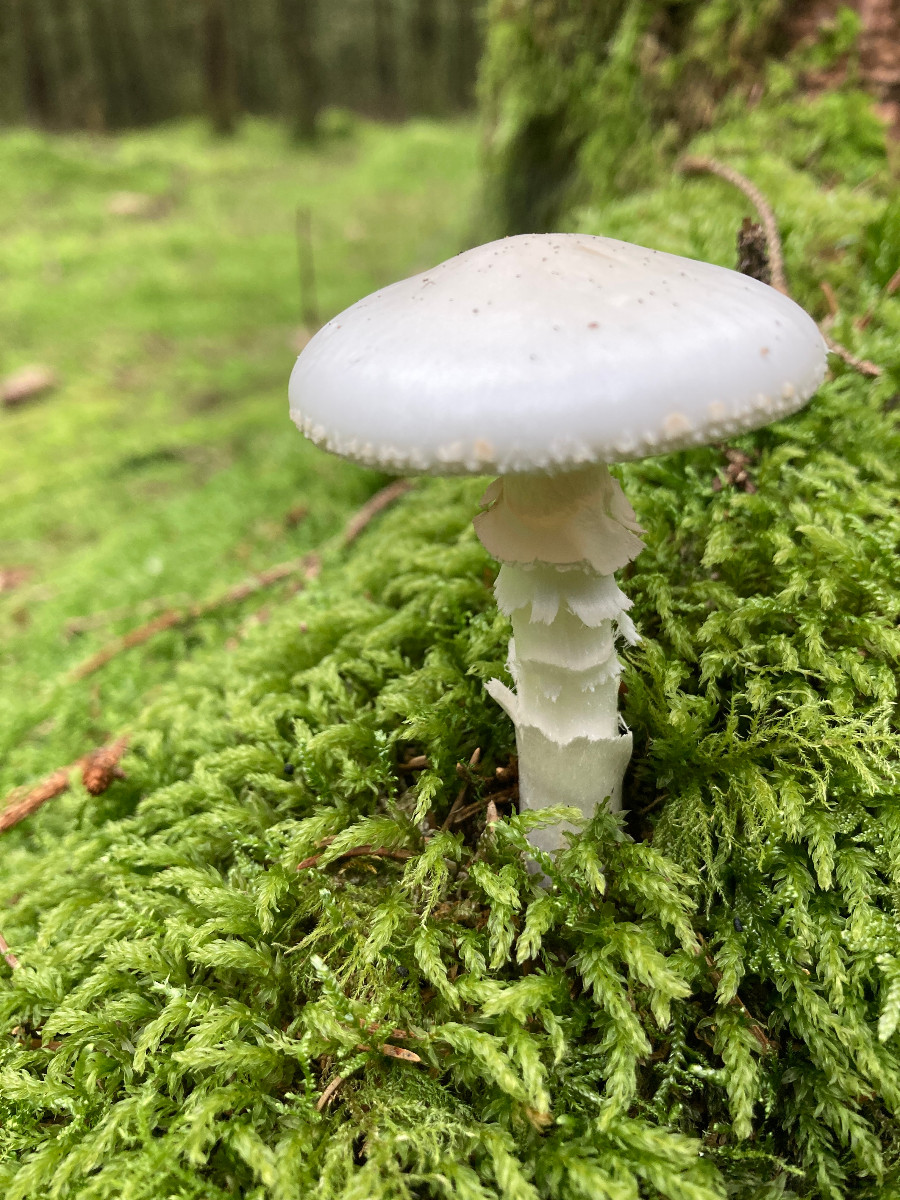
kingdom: Fungi
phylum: Basidiomycota
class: Agaricomycetes
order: Agaricales
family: Amanitaceae
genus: Amanita
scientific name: Amanita citrina
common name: kugleknoldet fluesvamp
